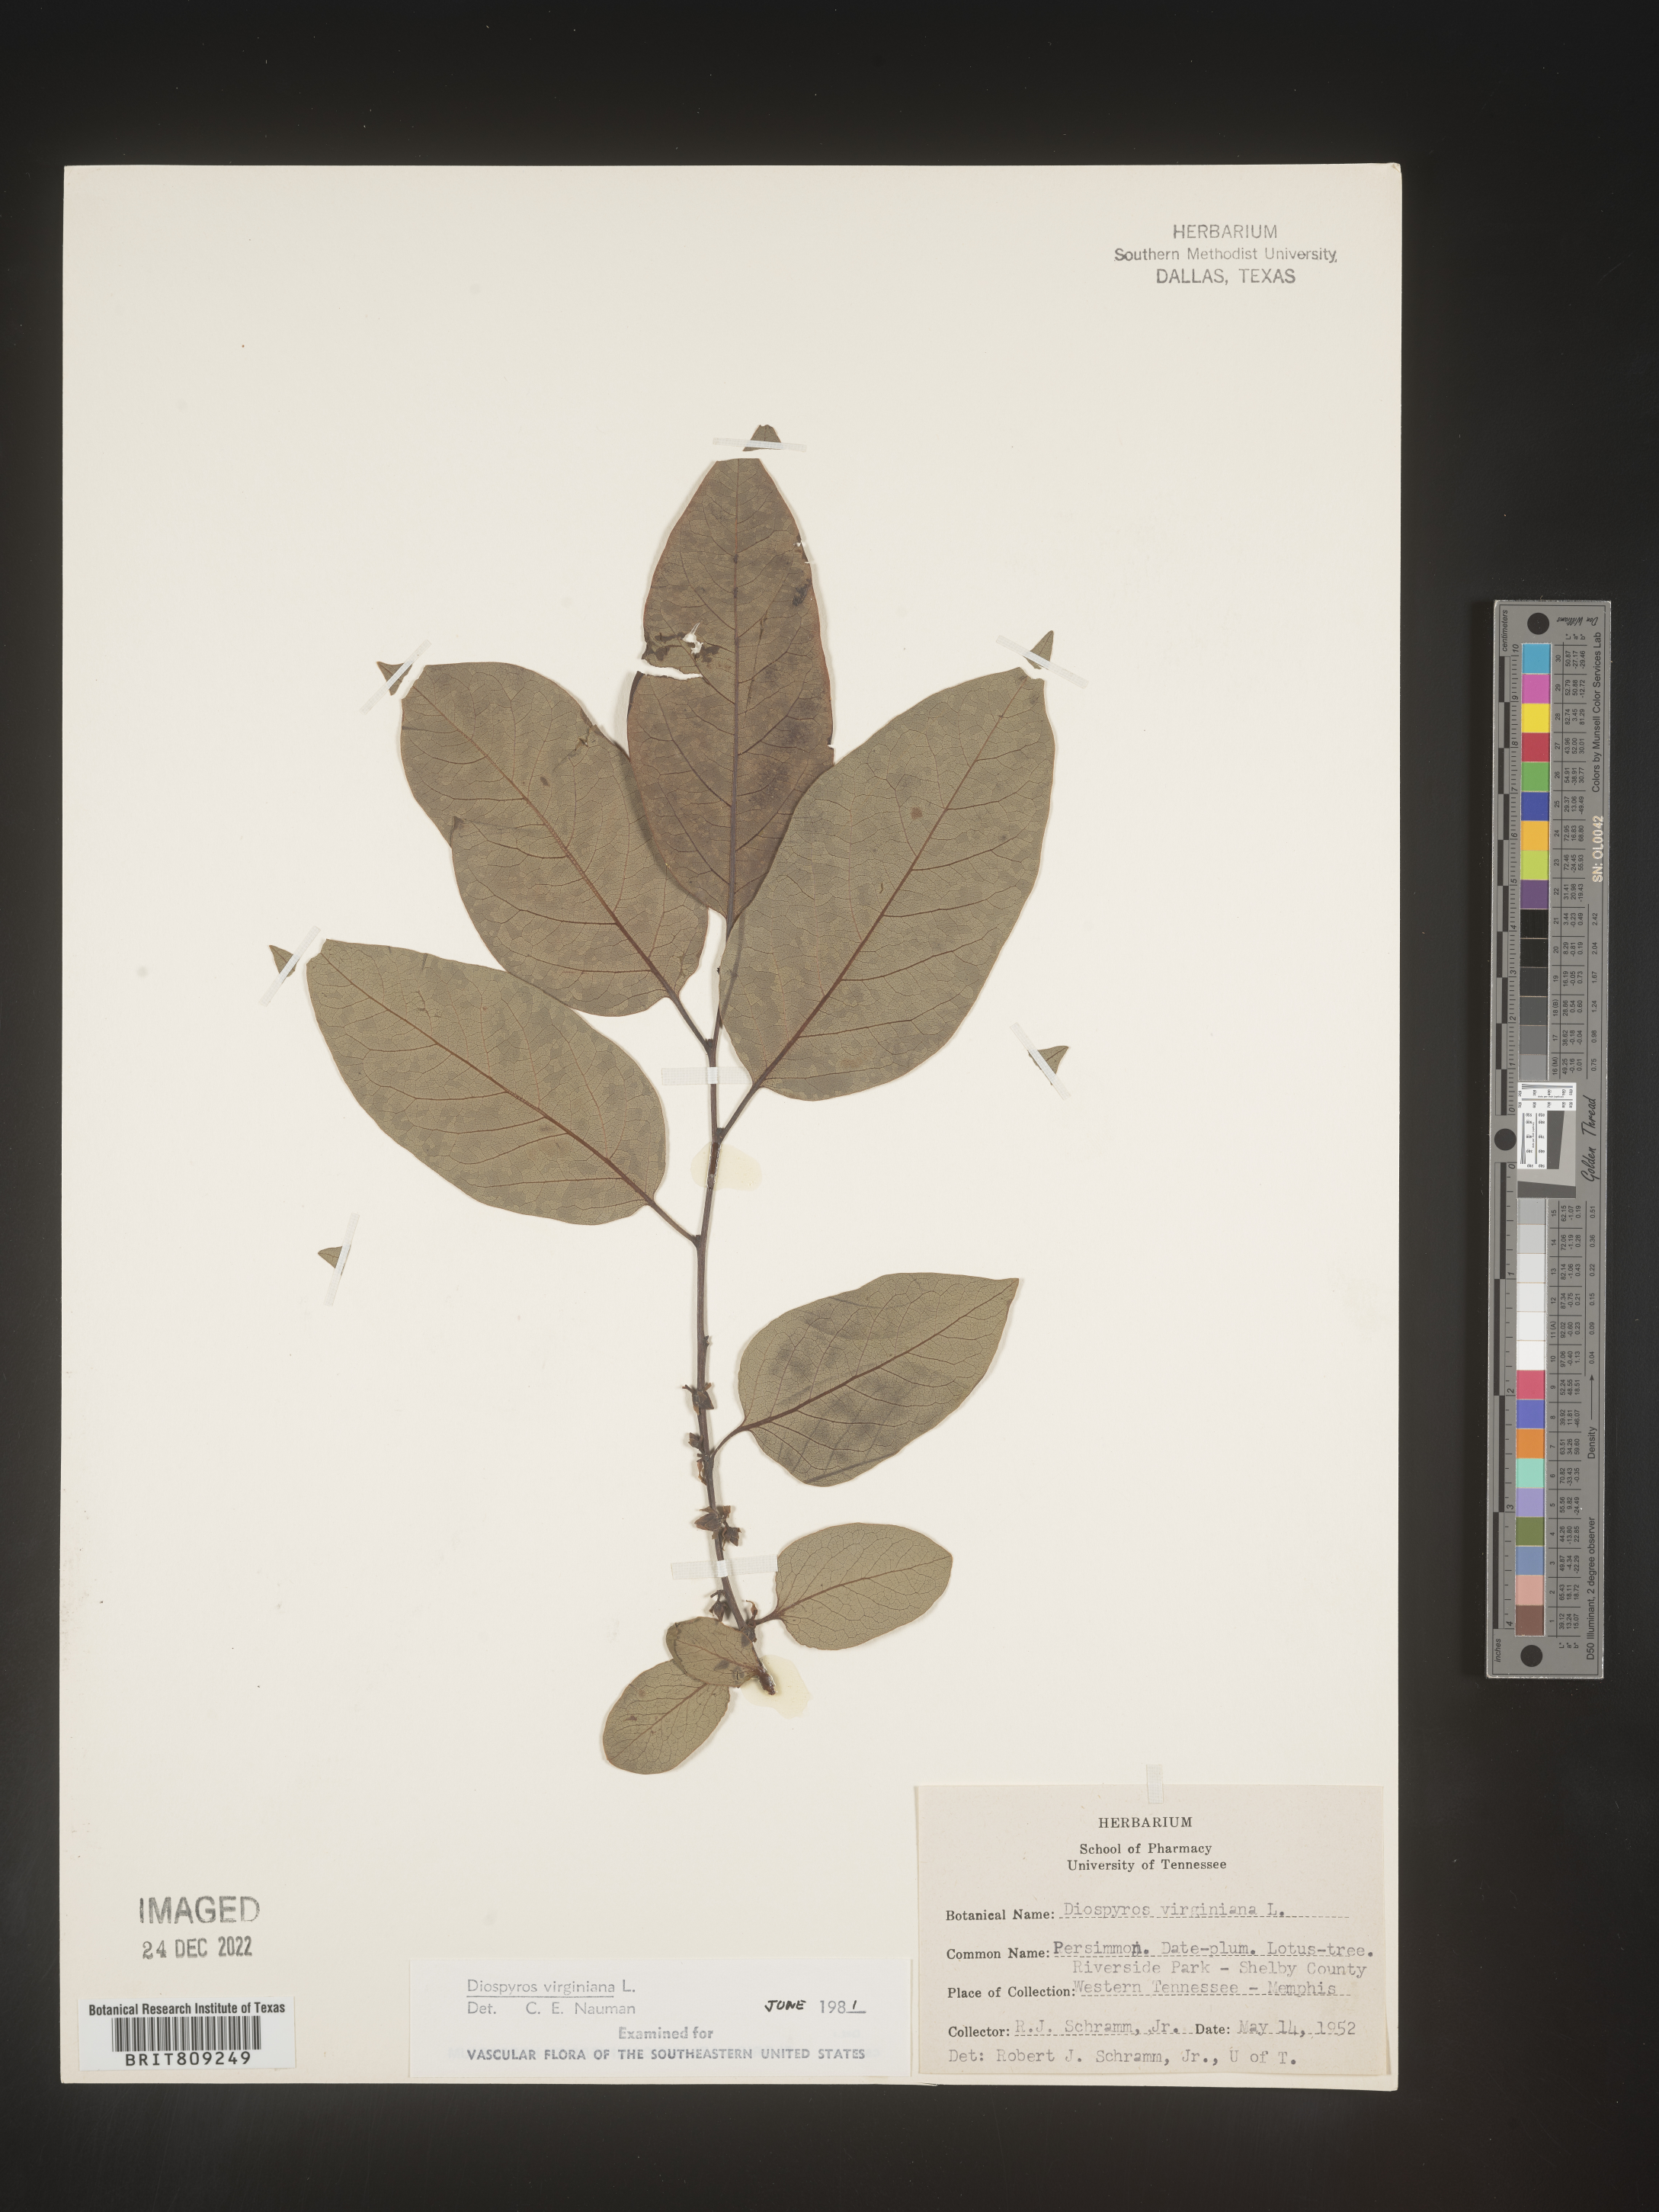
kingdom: Plantae
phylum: Tracheophyta
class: Magnoliopsida
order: Ericales
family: Ebenaceae
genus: Diospyros
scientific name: Diospyros virginiana
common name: Persimmon
